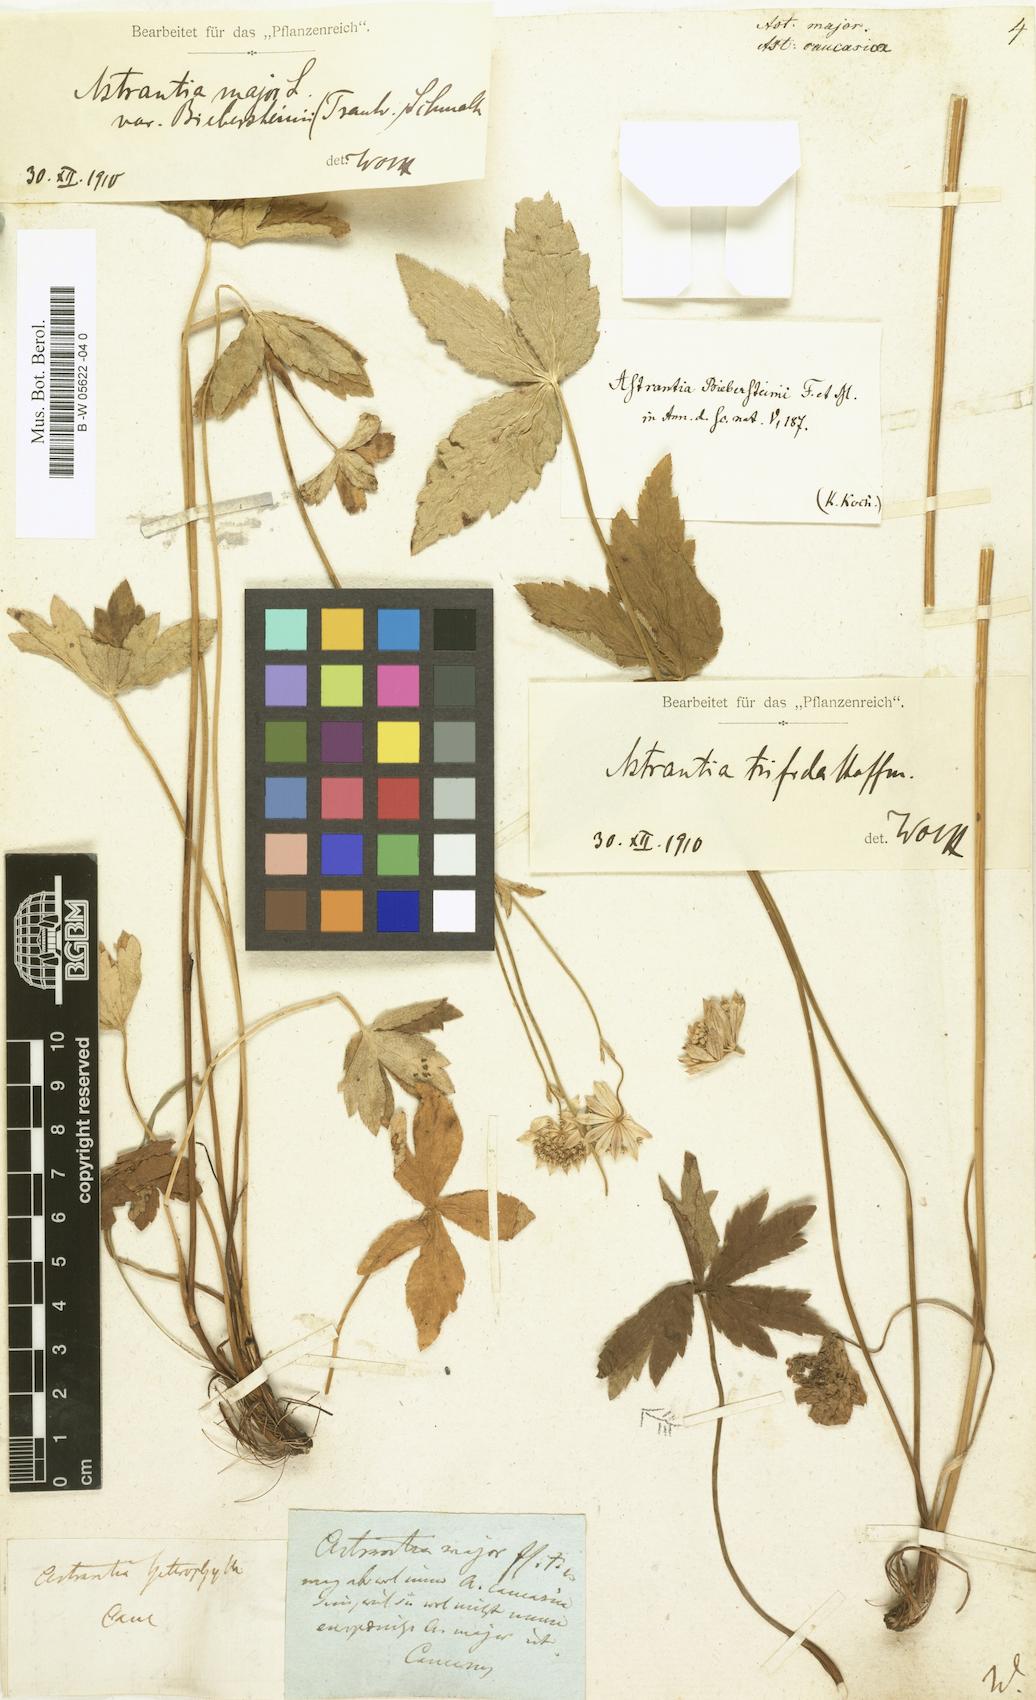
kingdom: Plantae
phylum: Tracheophyta
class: Magnoliopsida
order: Apiales
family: Apiaceae
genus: Astrantia
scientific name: Astrantia major
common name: Greater masterwort
